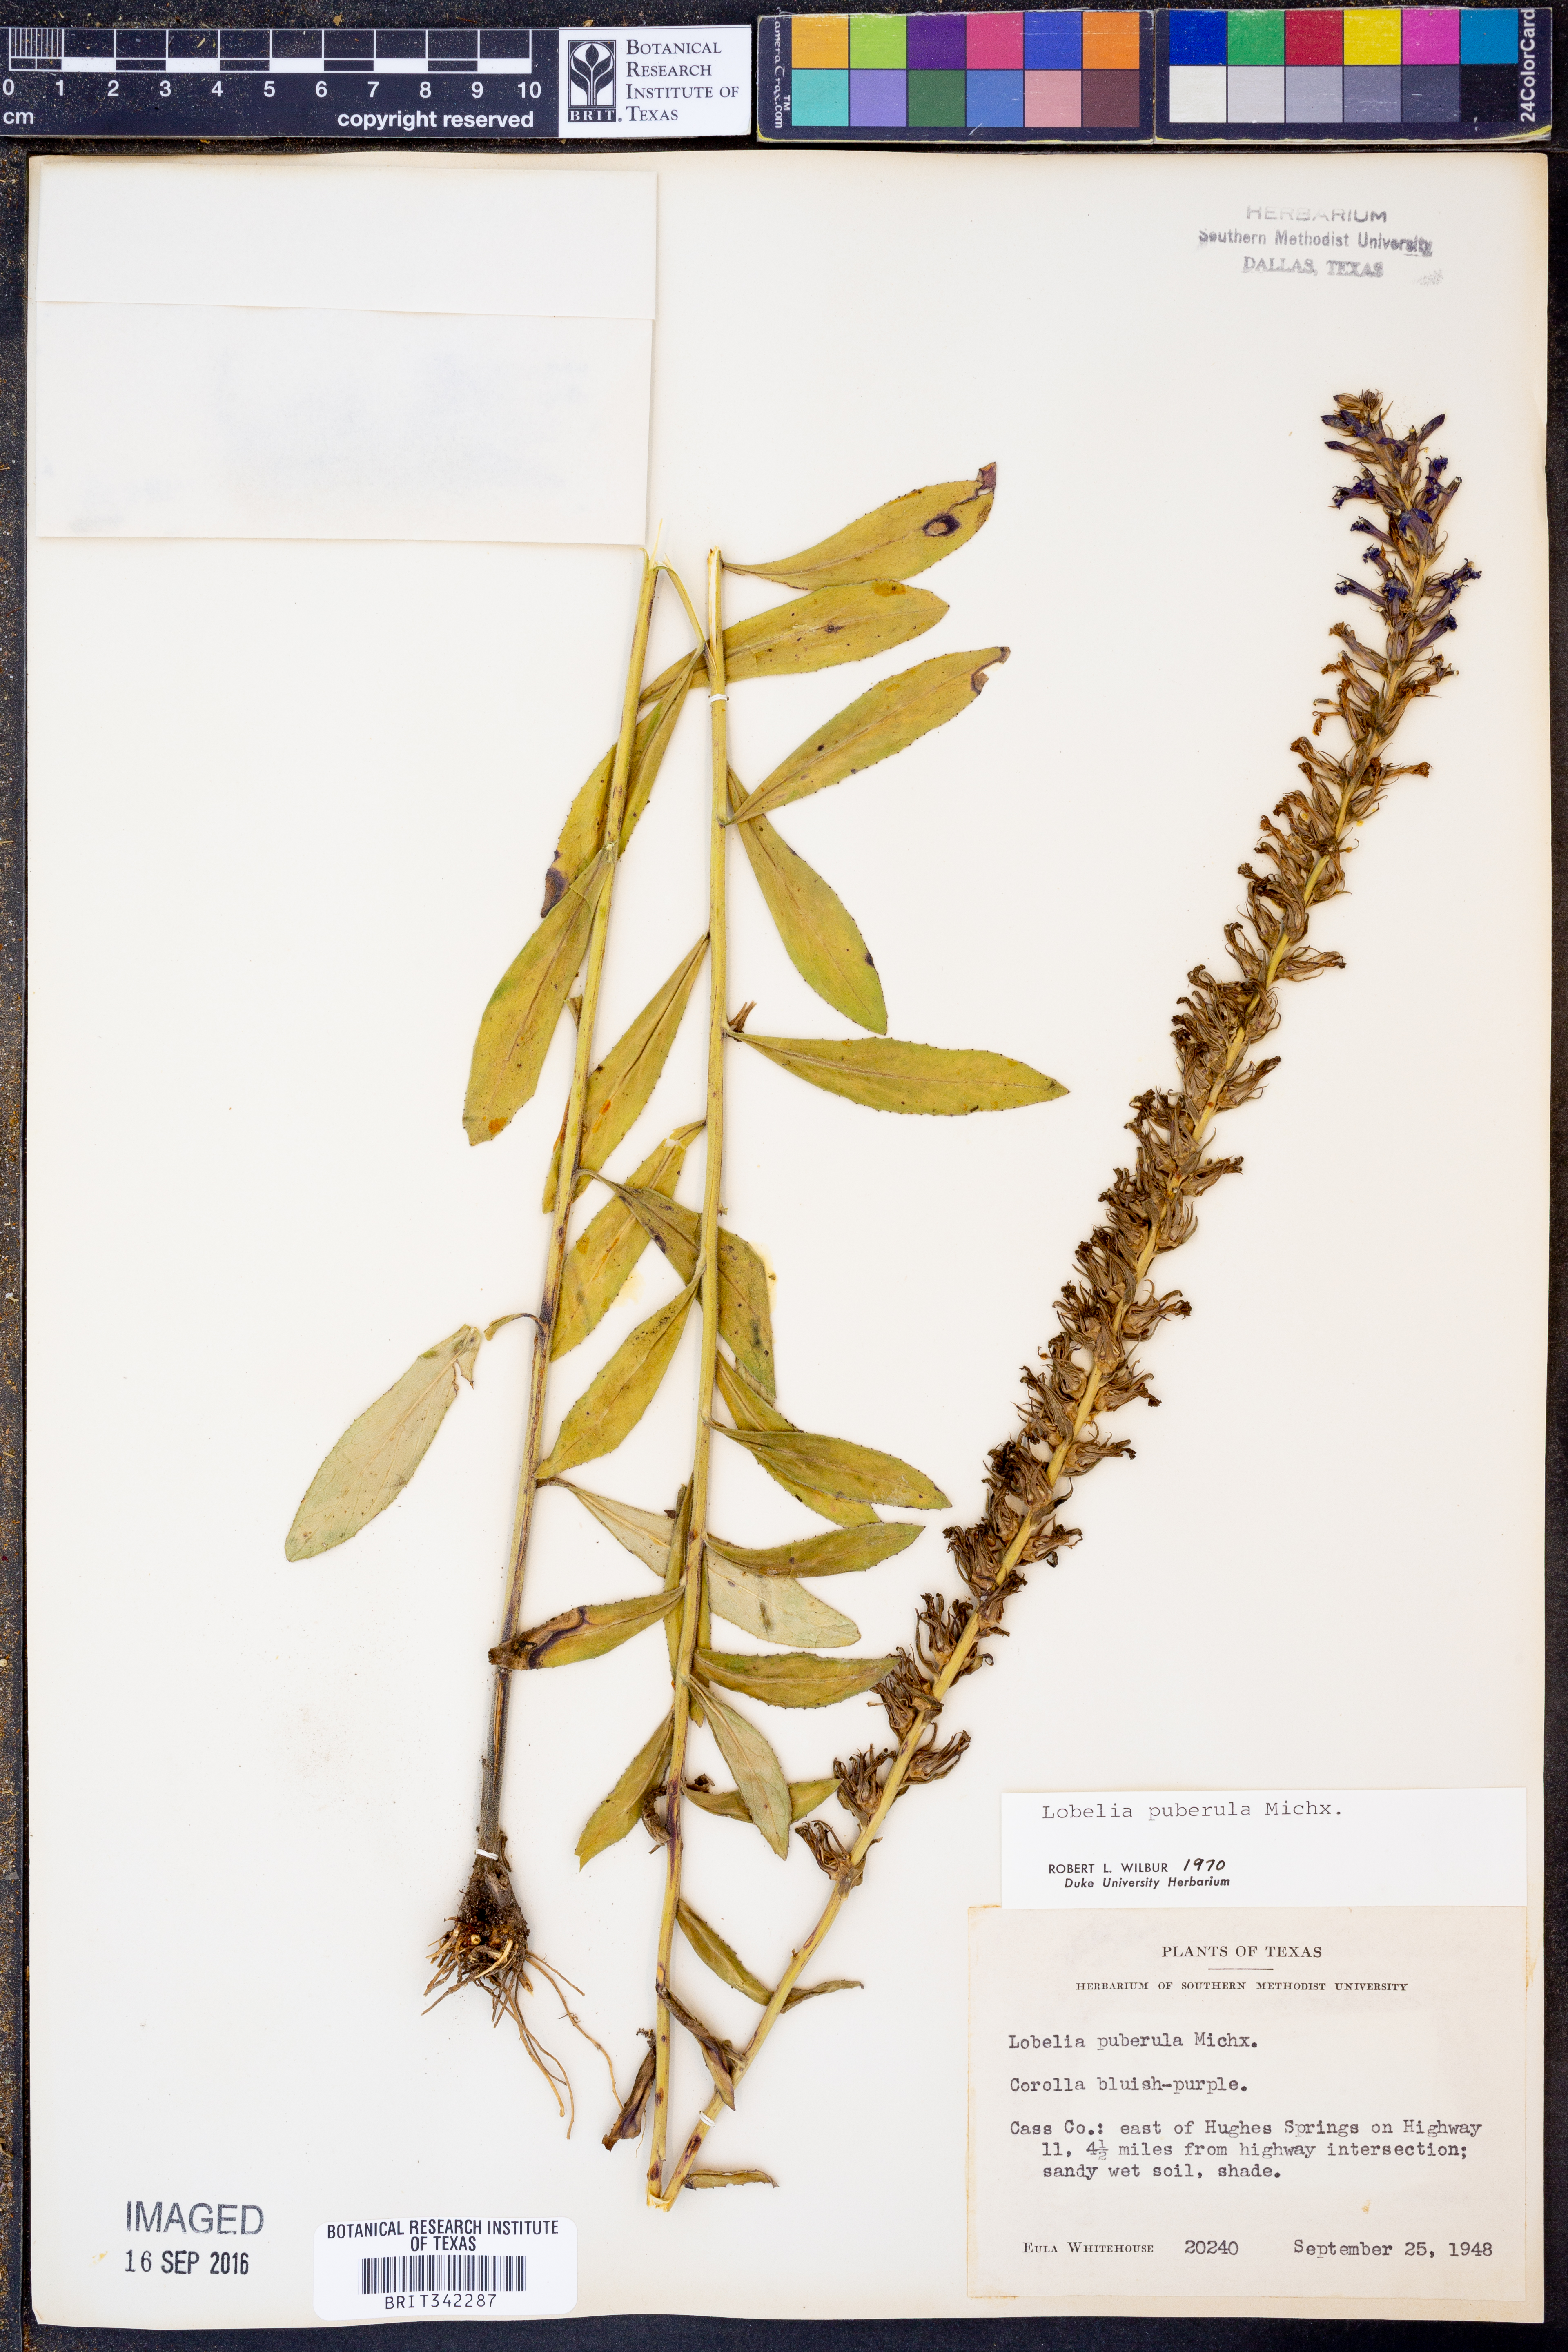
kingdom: Plantae
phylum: Tracheophyta
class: Magnoliopsida
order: Asterales
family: Campanulaceae
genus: Lobelia
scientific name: Lobelia puberula
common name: Purple dewdrop
